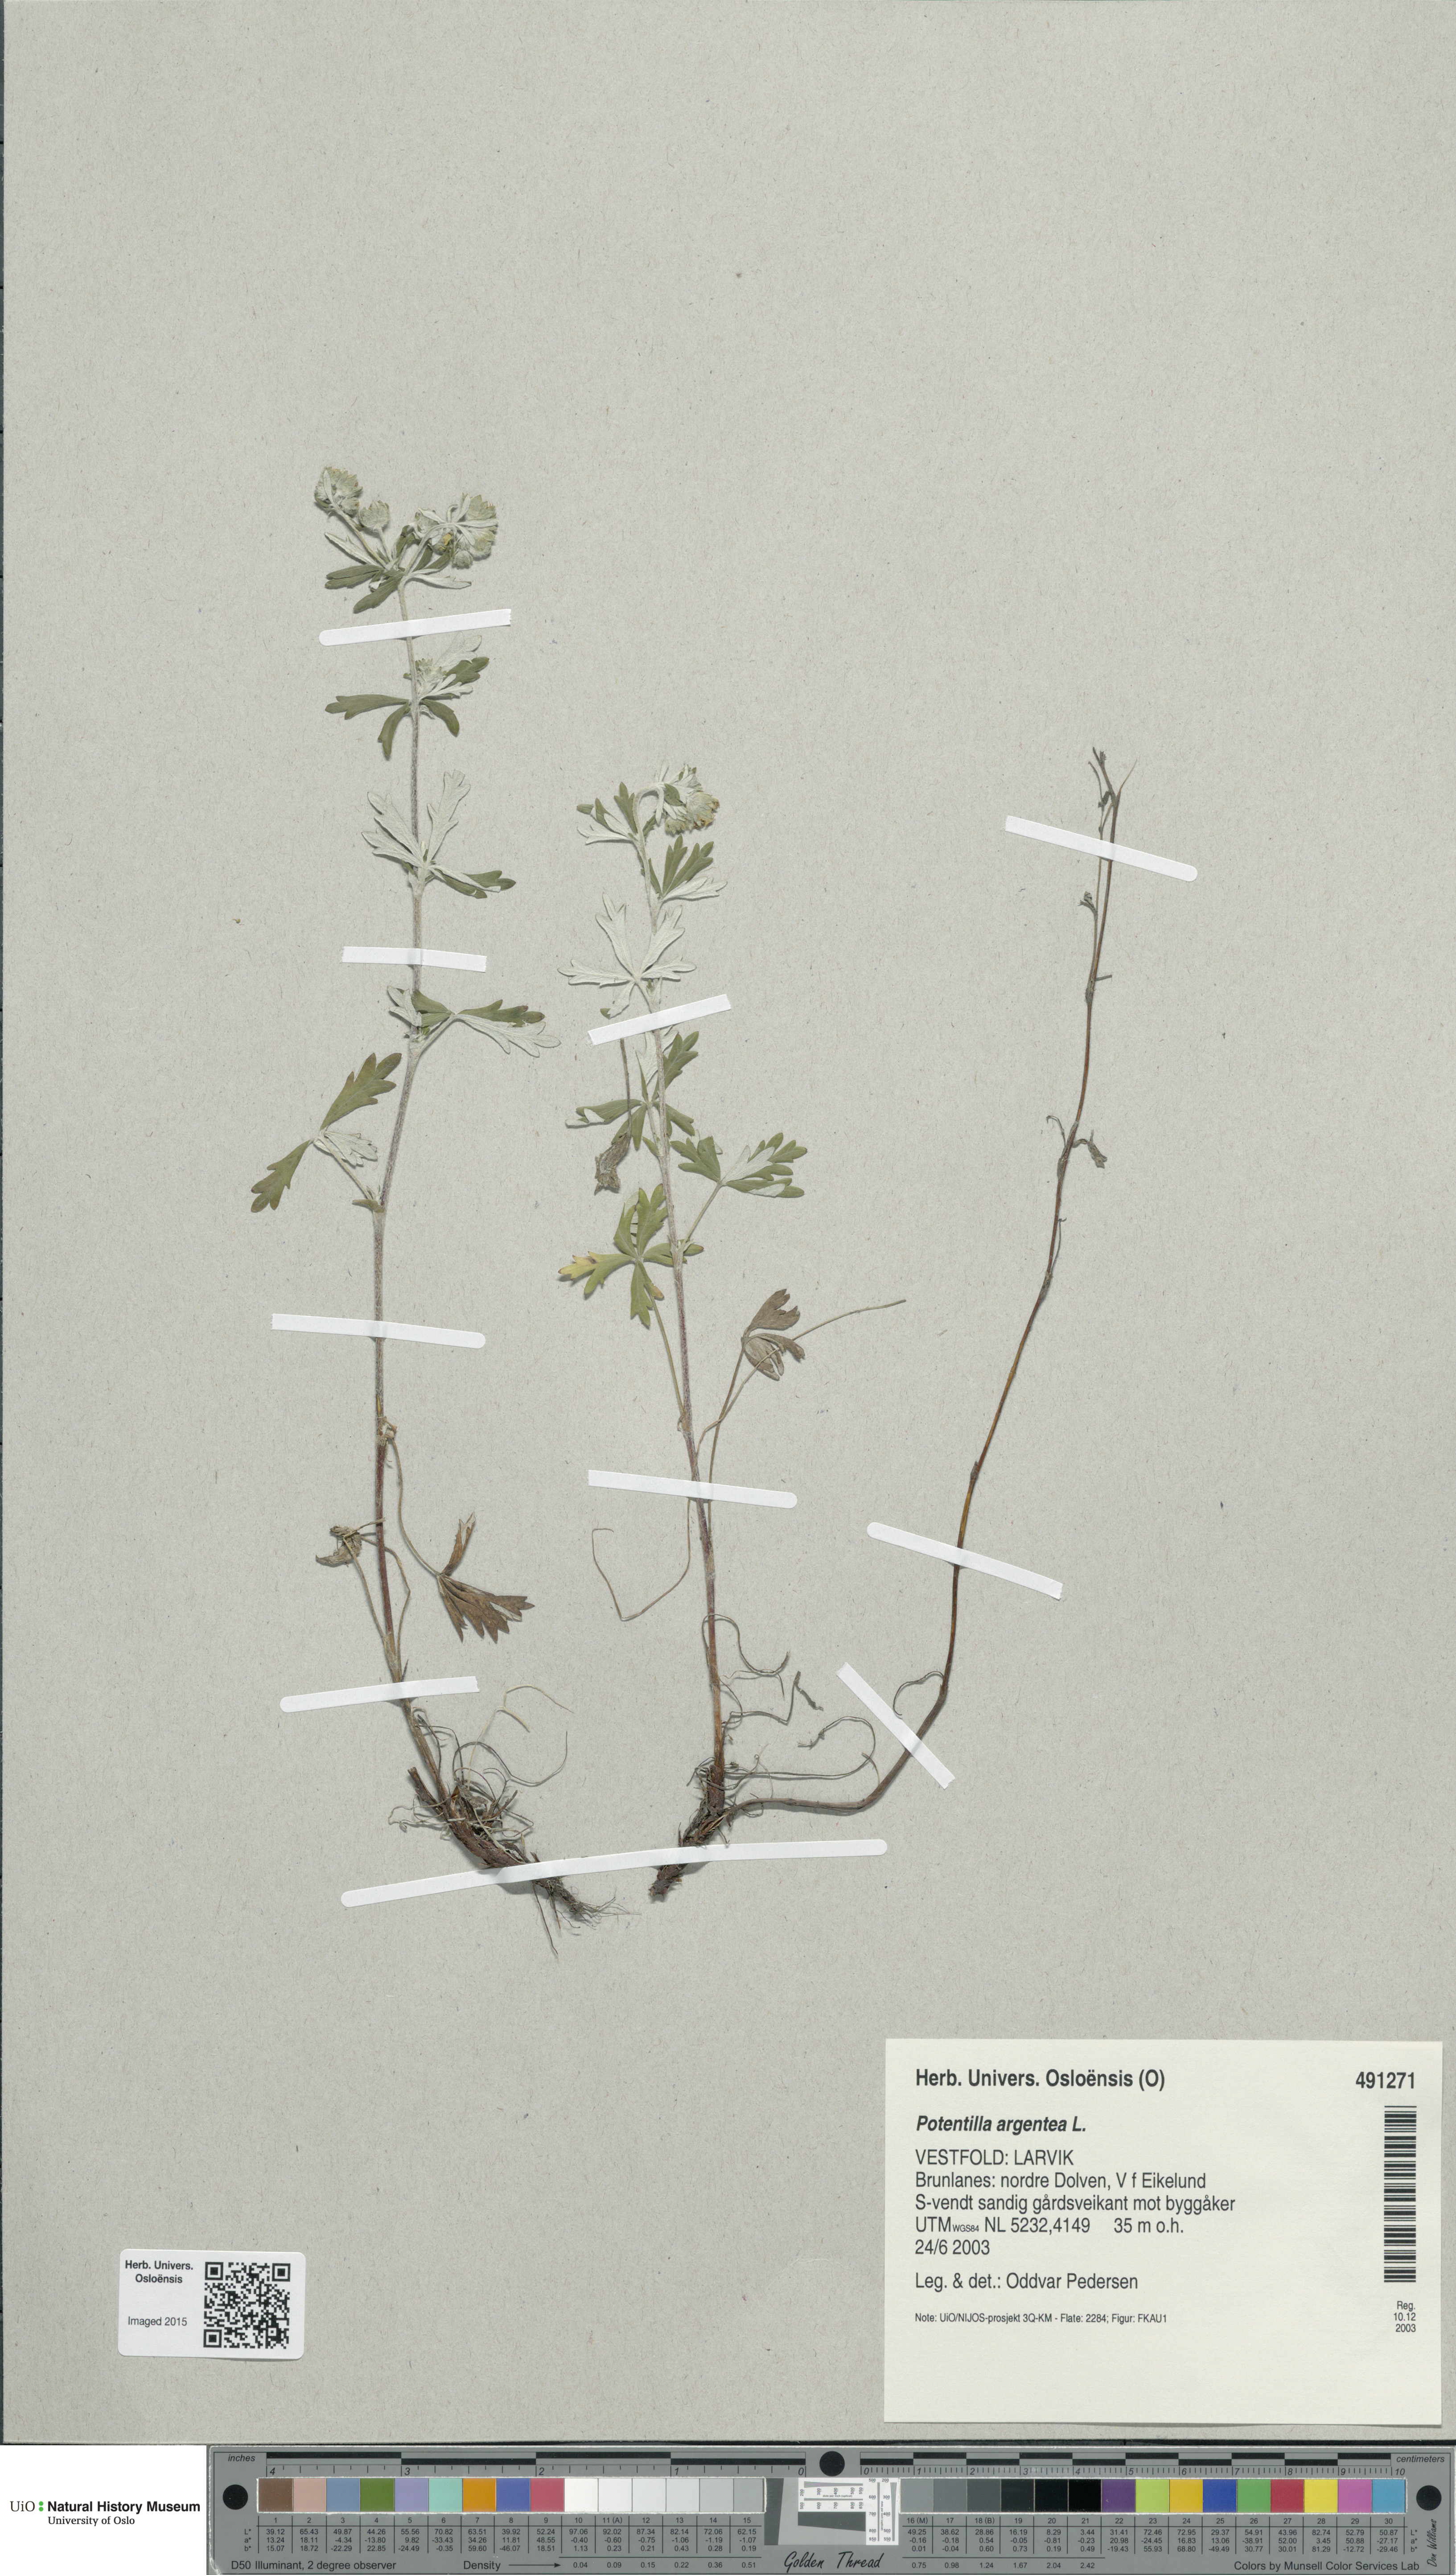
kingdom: Plantae
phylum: Tracheophyta
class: Magnoliopsida
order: Rosales
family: Rosaceae
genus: Potentilla
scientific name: Potentilla argentea
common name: Hoary cinquefoil
